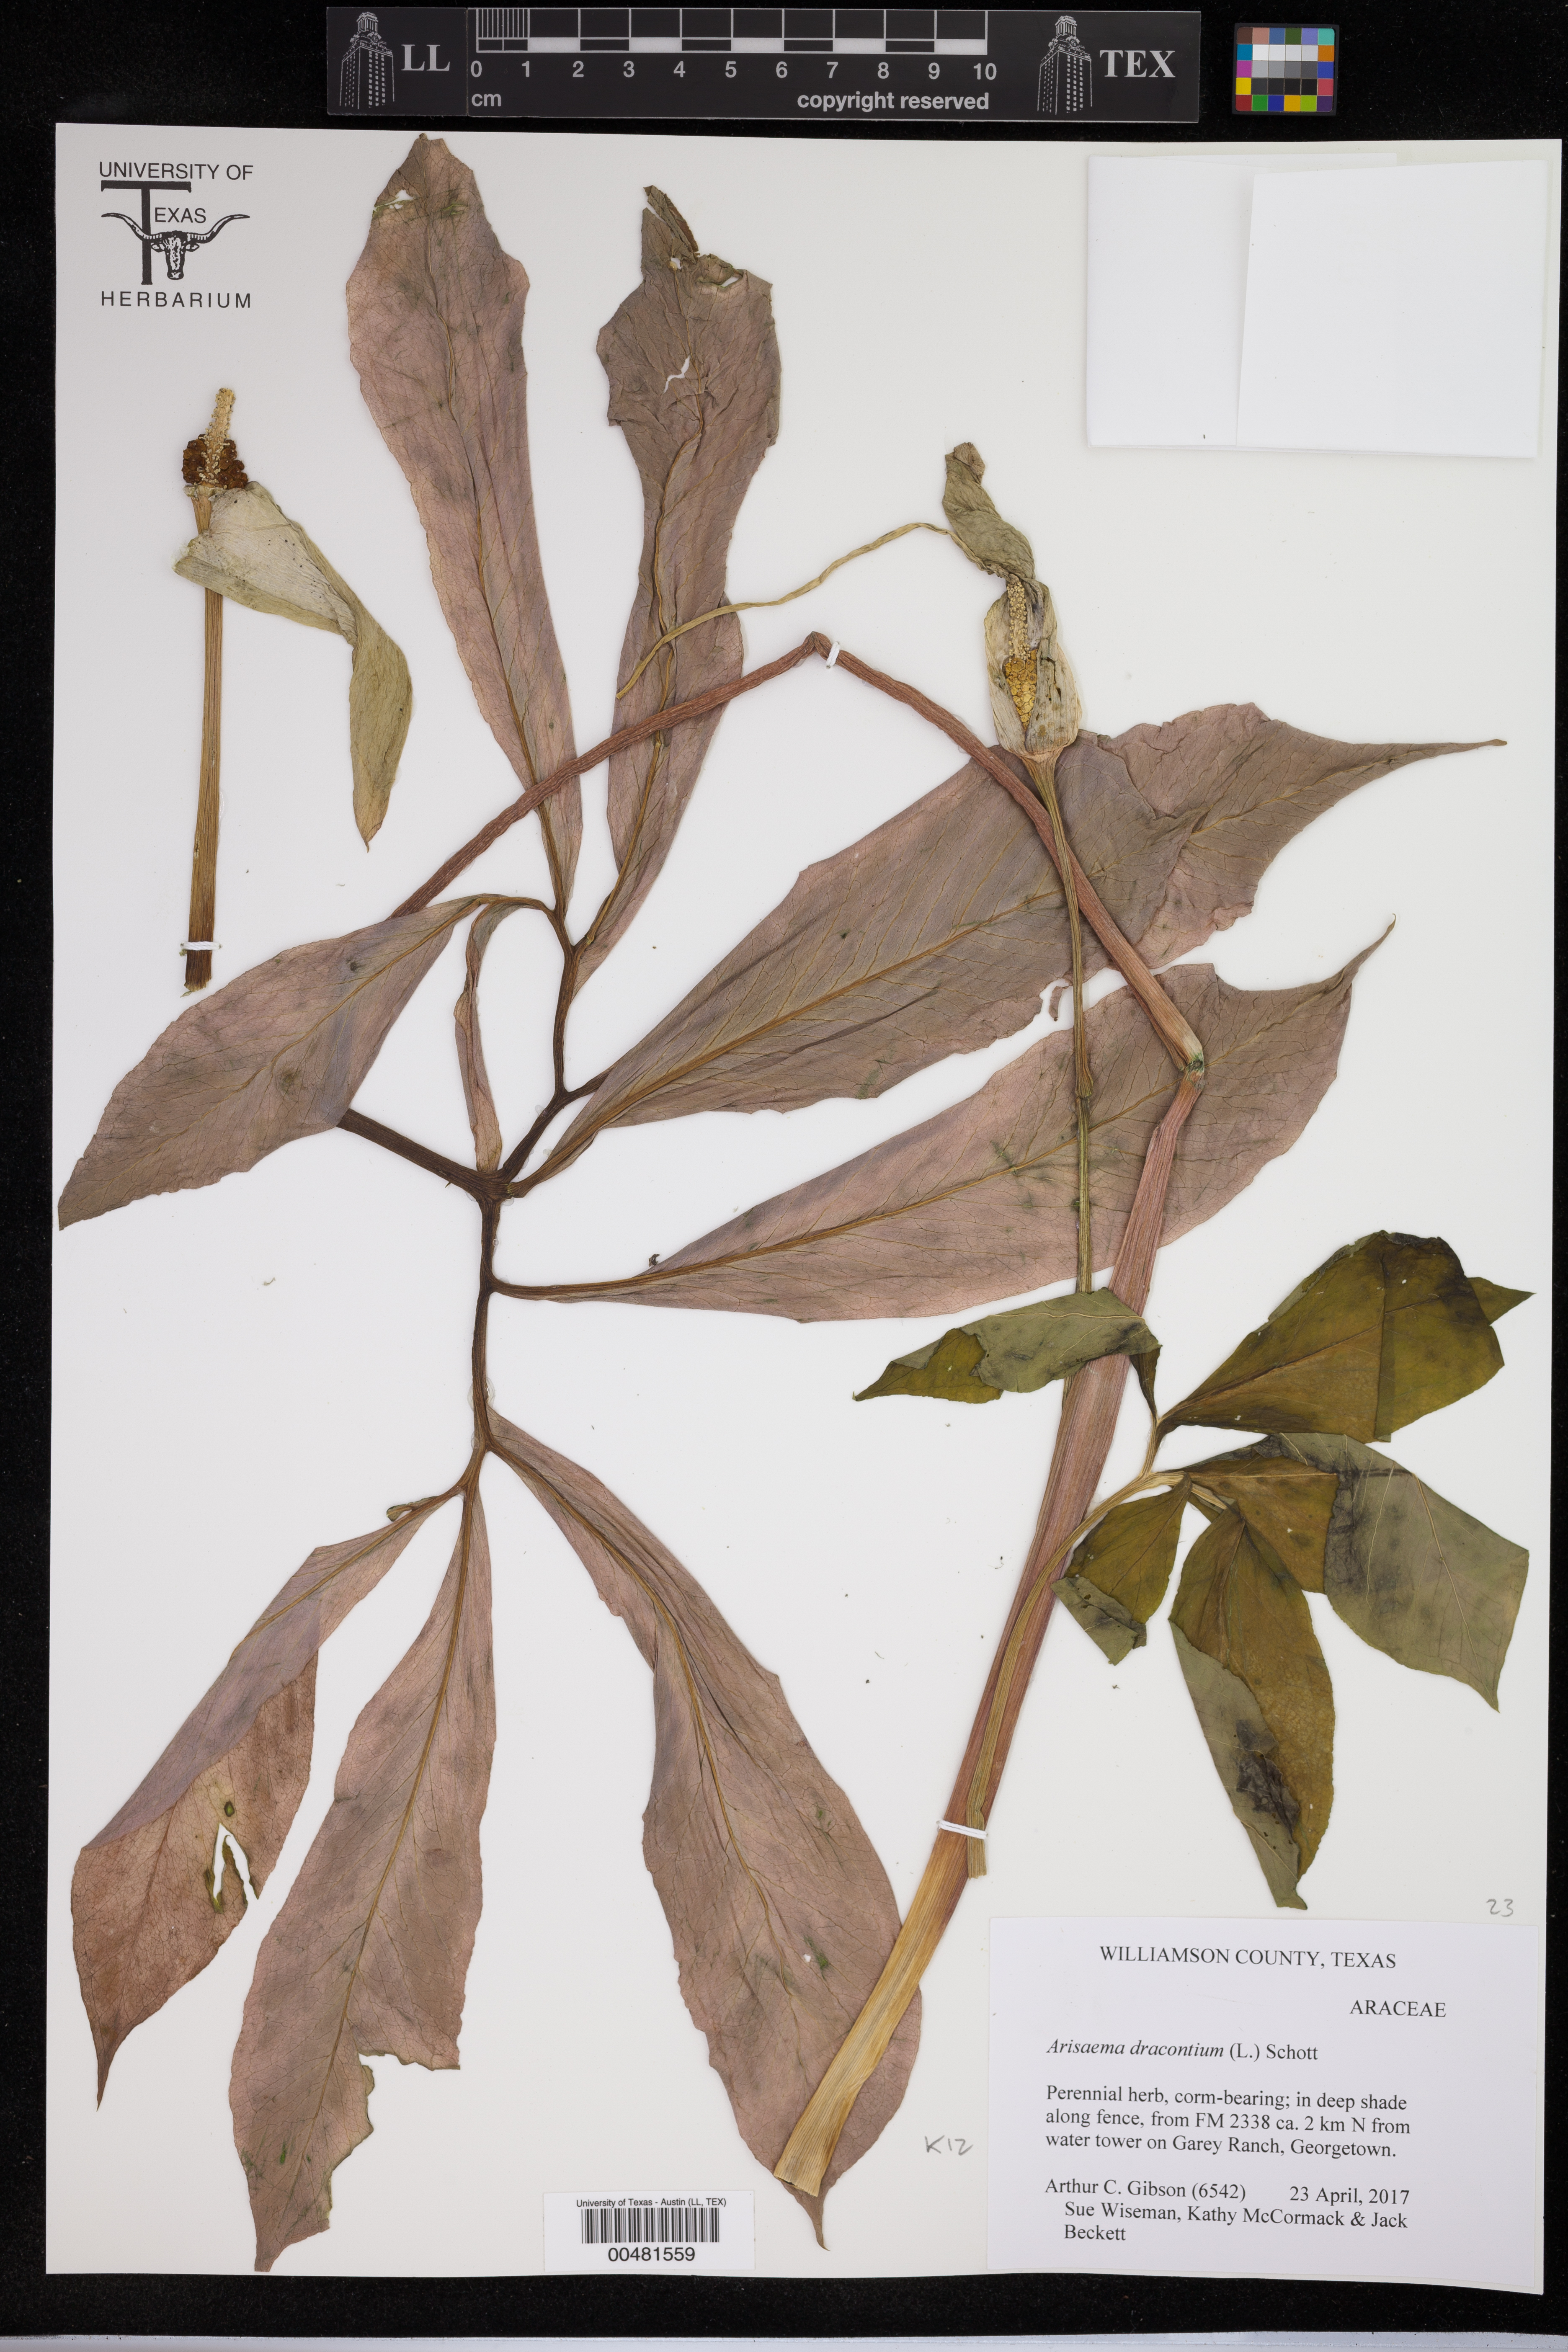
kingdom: Plantae
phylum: Tracheophyta
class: Liliopsida
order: Alismatales
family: Araceae
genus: Arisaema
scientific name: Arisaema dracontium
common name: Dragon-arum
